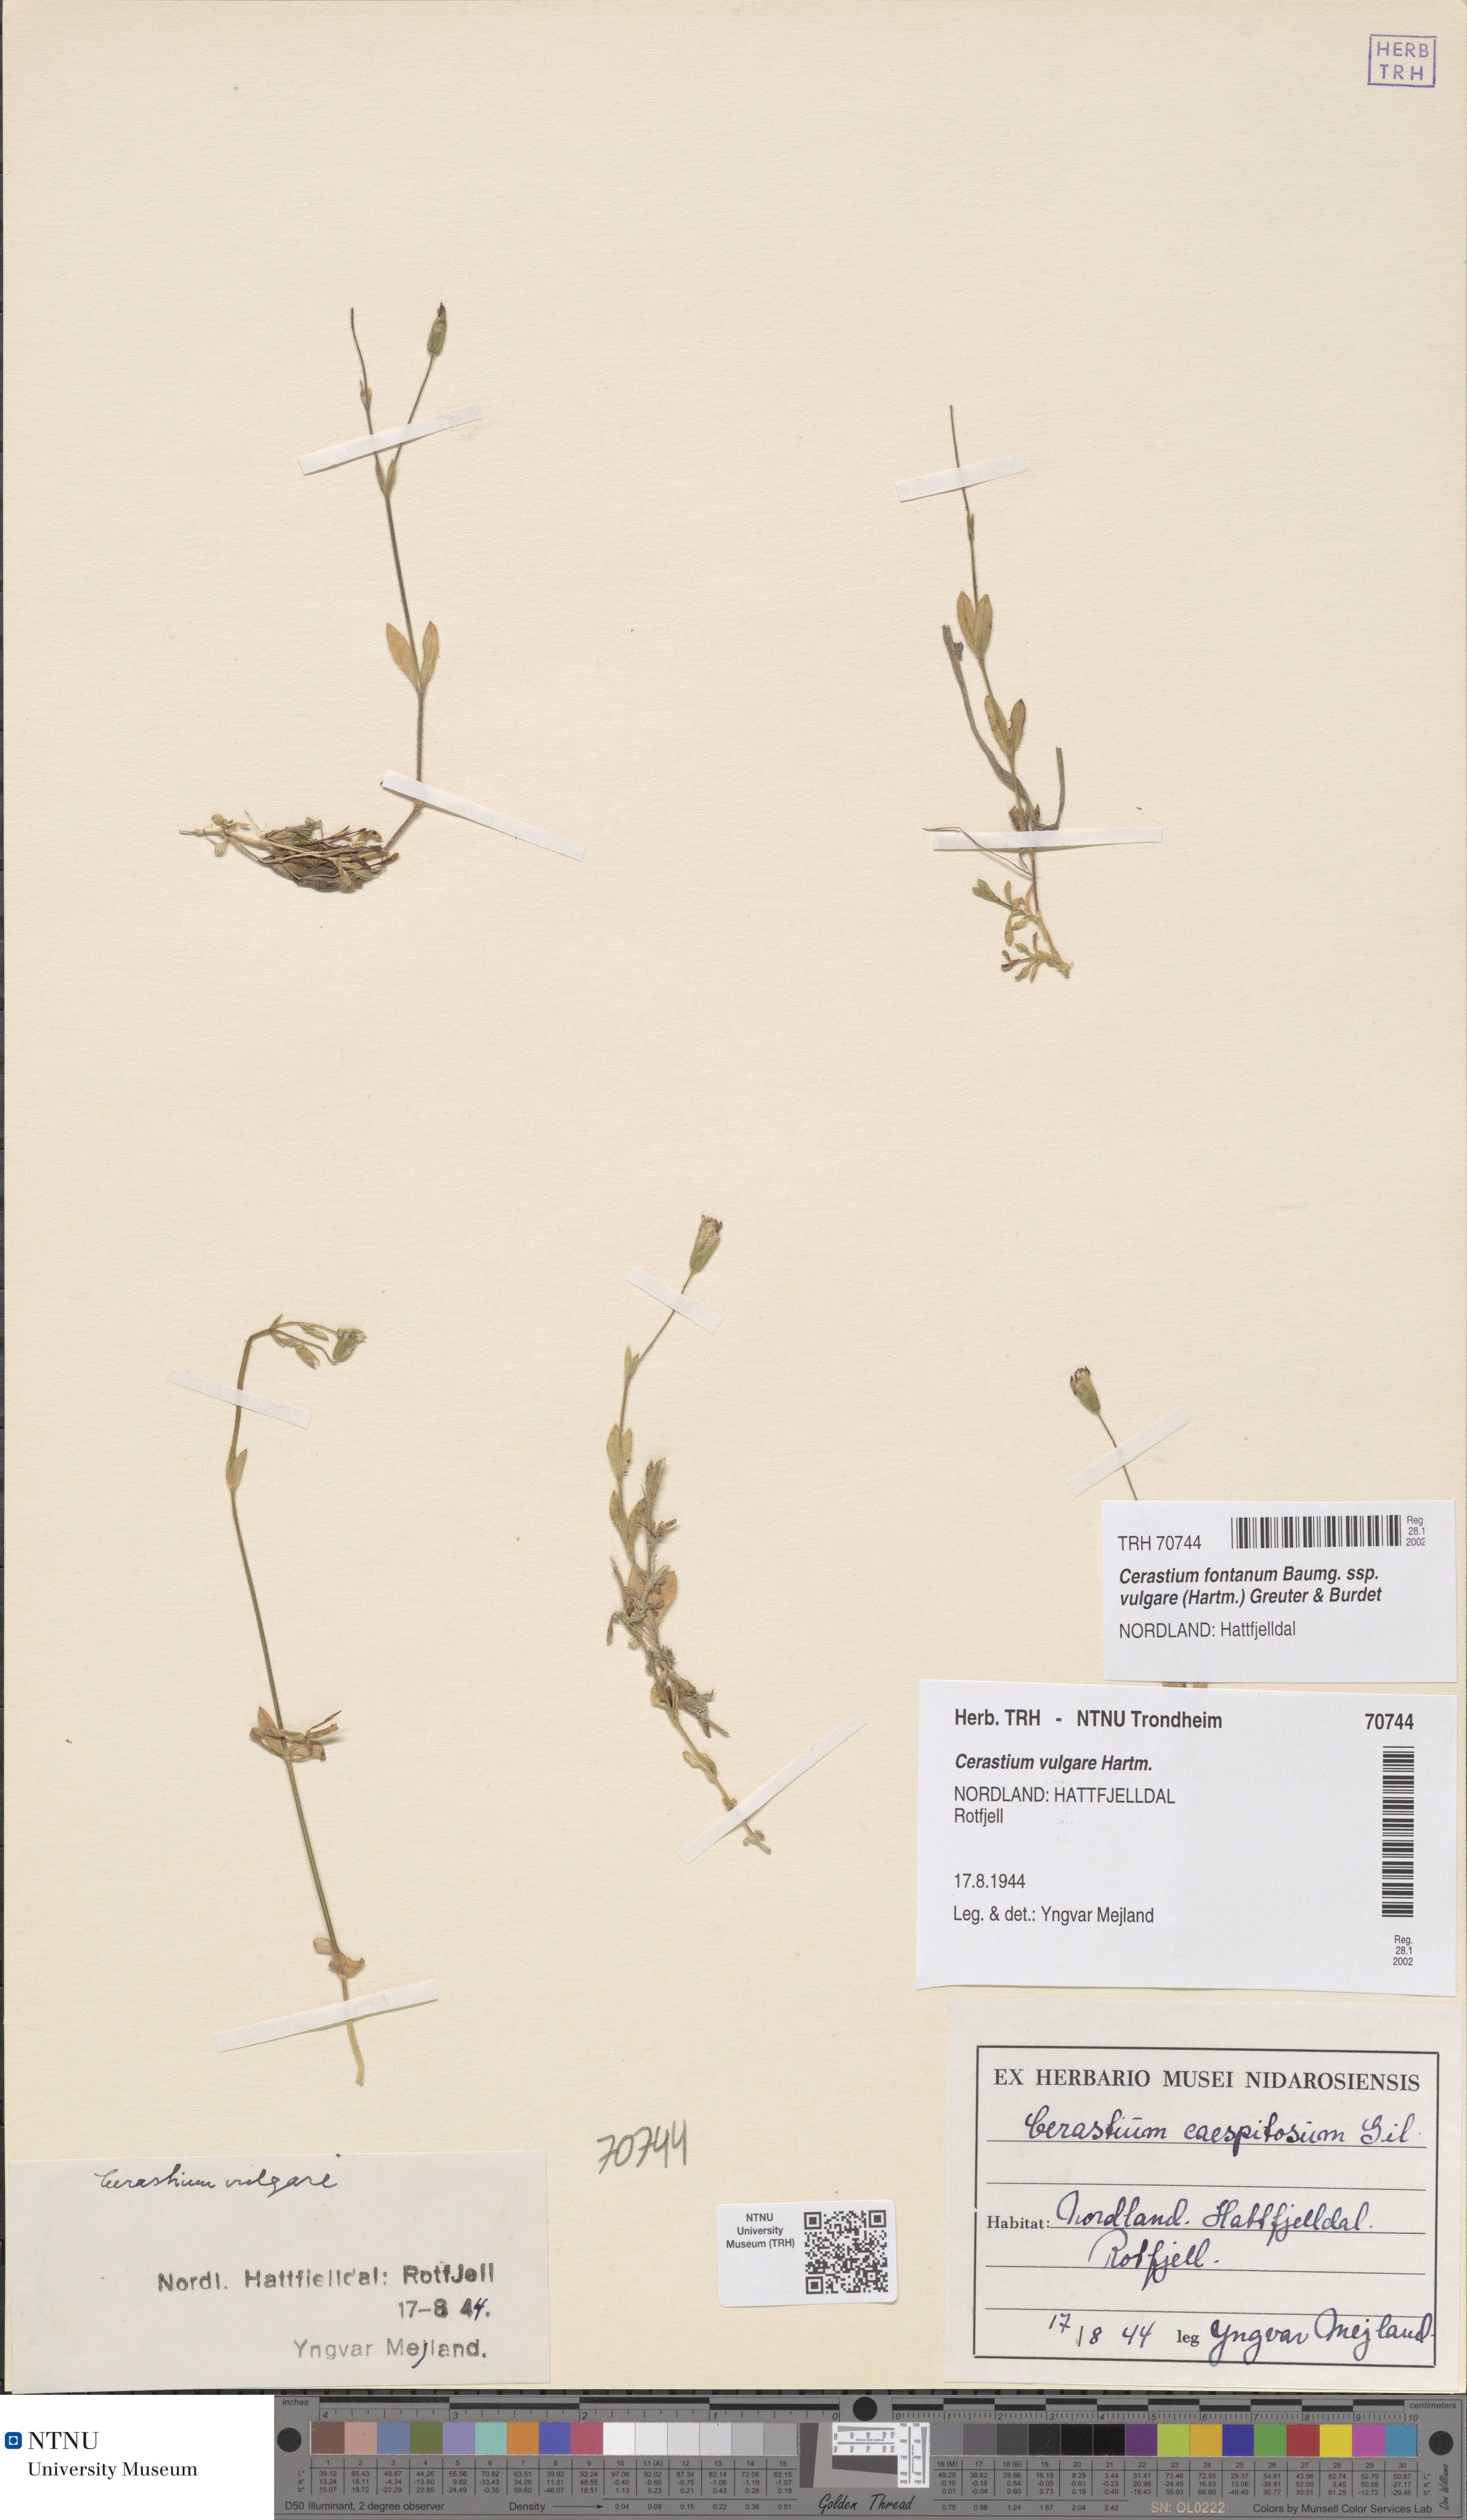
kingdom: Plantae
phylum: Tracheophyta
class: Magnoliopsida
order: Caryophyllales
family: Caryophyllaceae
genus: Cerastium
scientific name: Cerastium holosteoides
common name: Big chickweed
